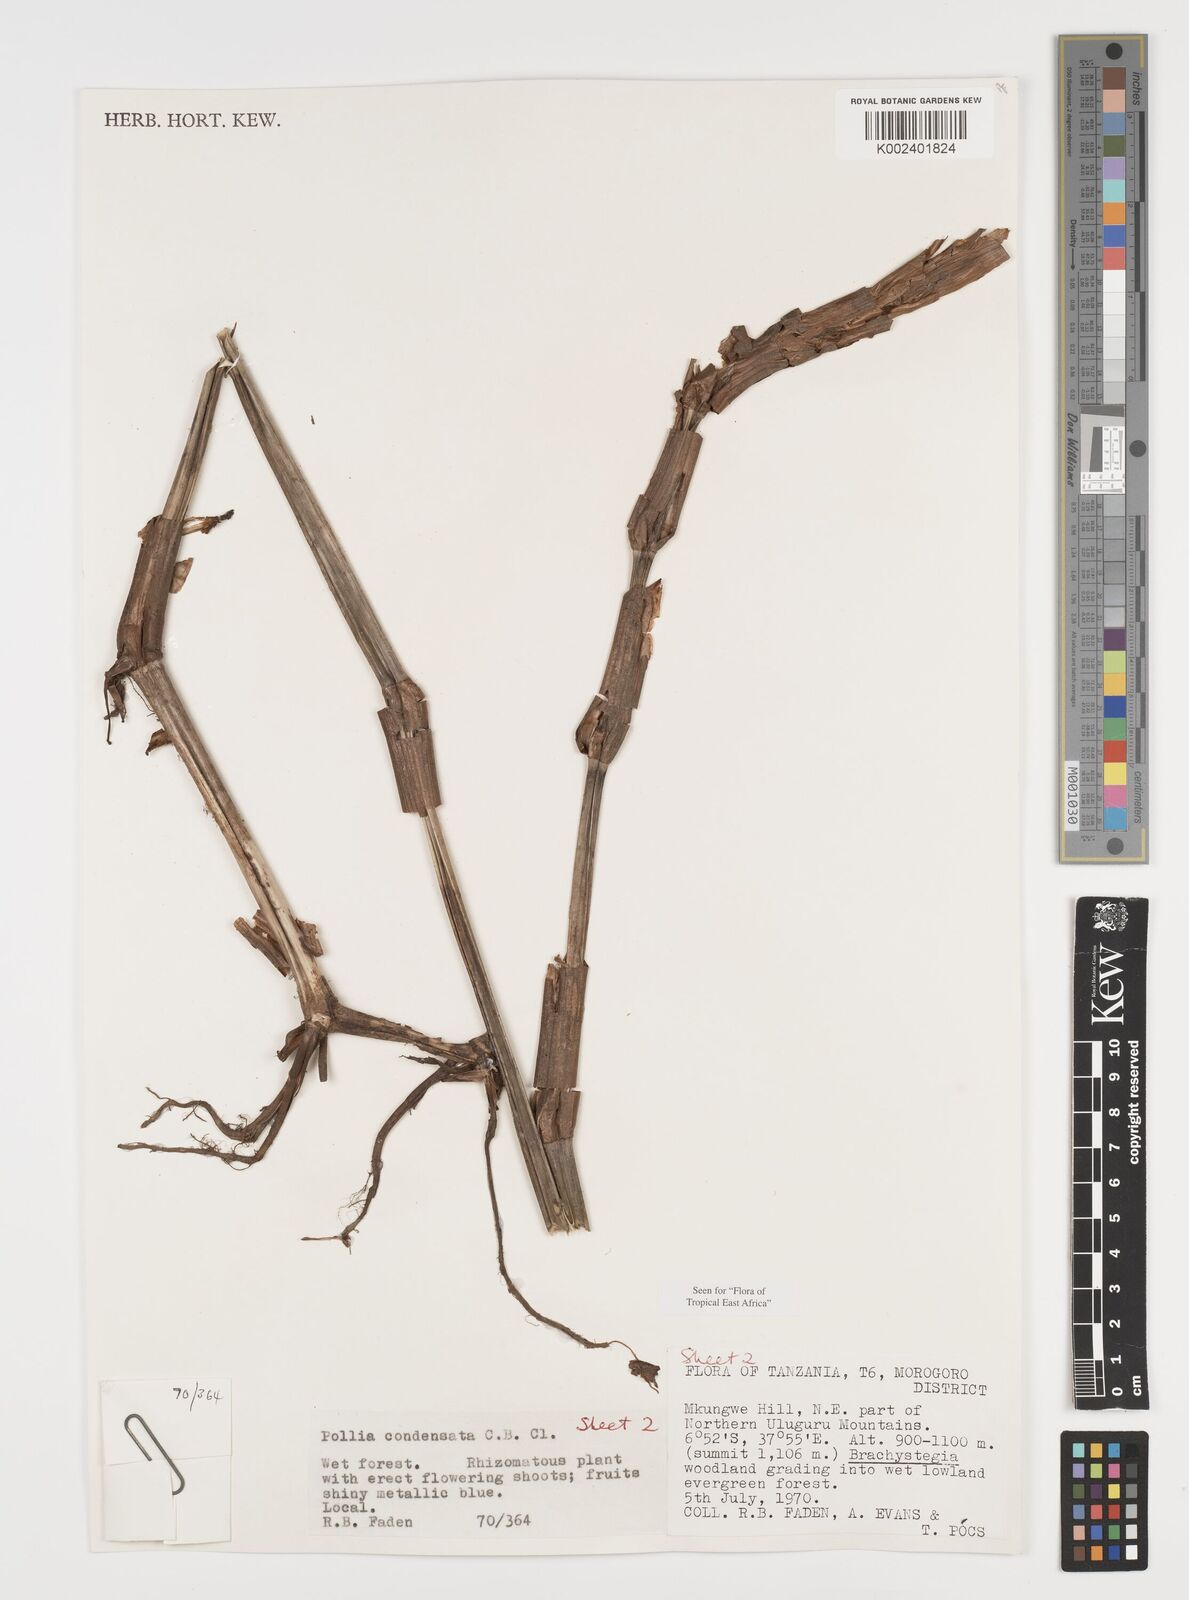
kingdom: Plantae
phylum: Tracheophyta
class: Liliopsida
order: Commelinales
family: Commelinaceae
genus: Pollia
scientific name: Pollia condensata
